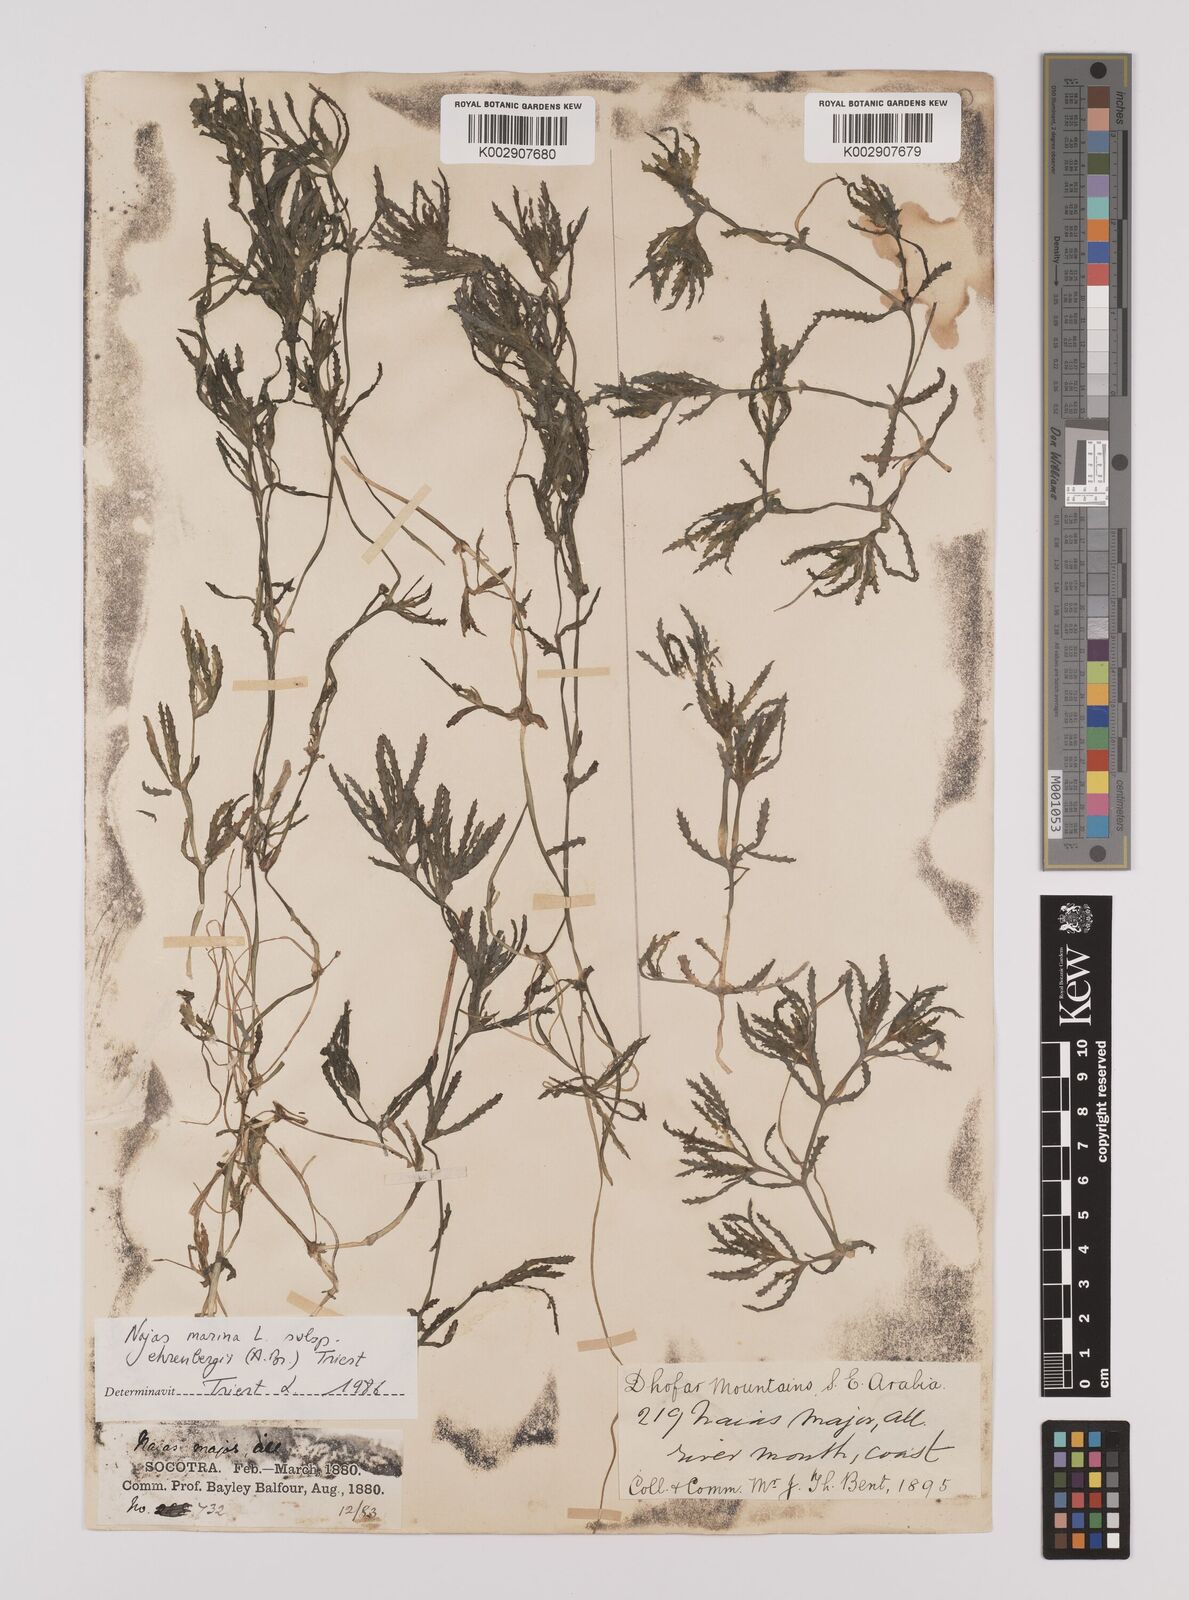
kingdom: Plantae
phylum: Tracheophyta
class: Liliopsida
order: Alismatales
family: Hydrocharitaceae
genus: Najas
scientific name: Najas major
